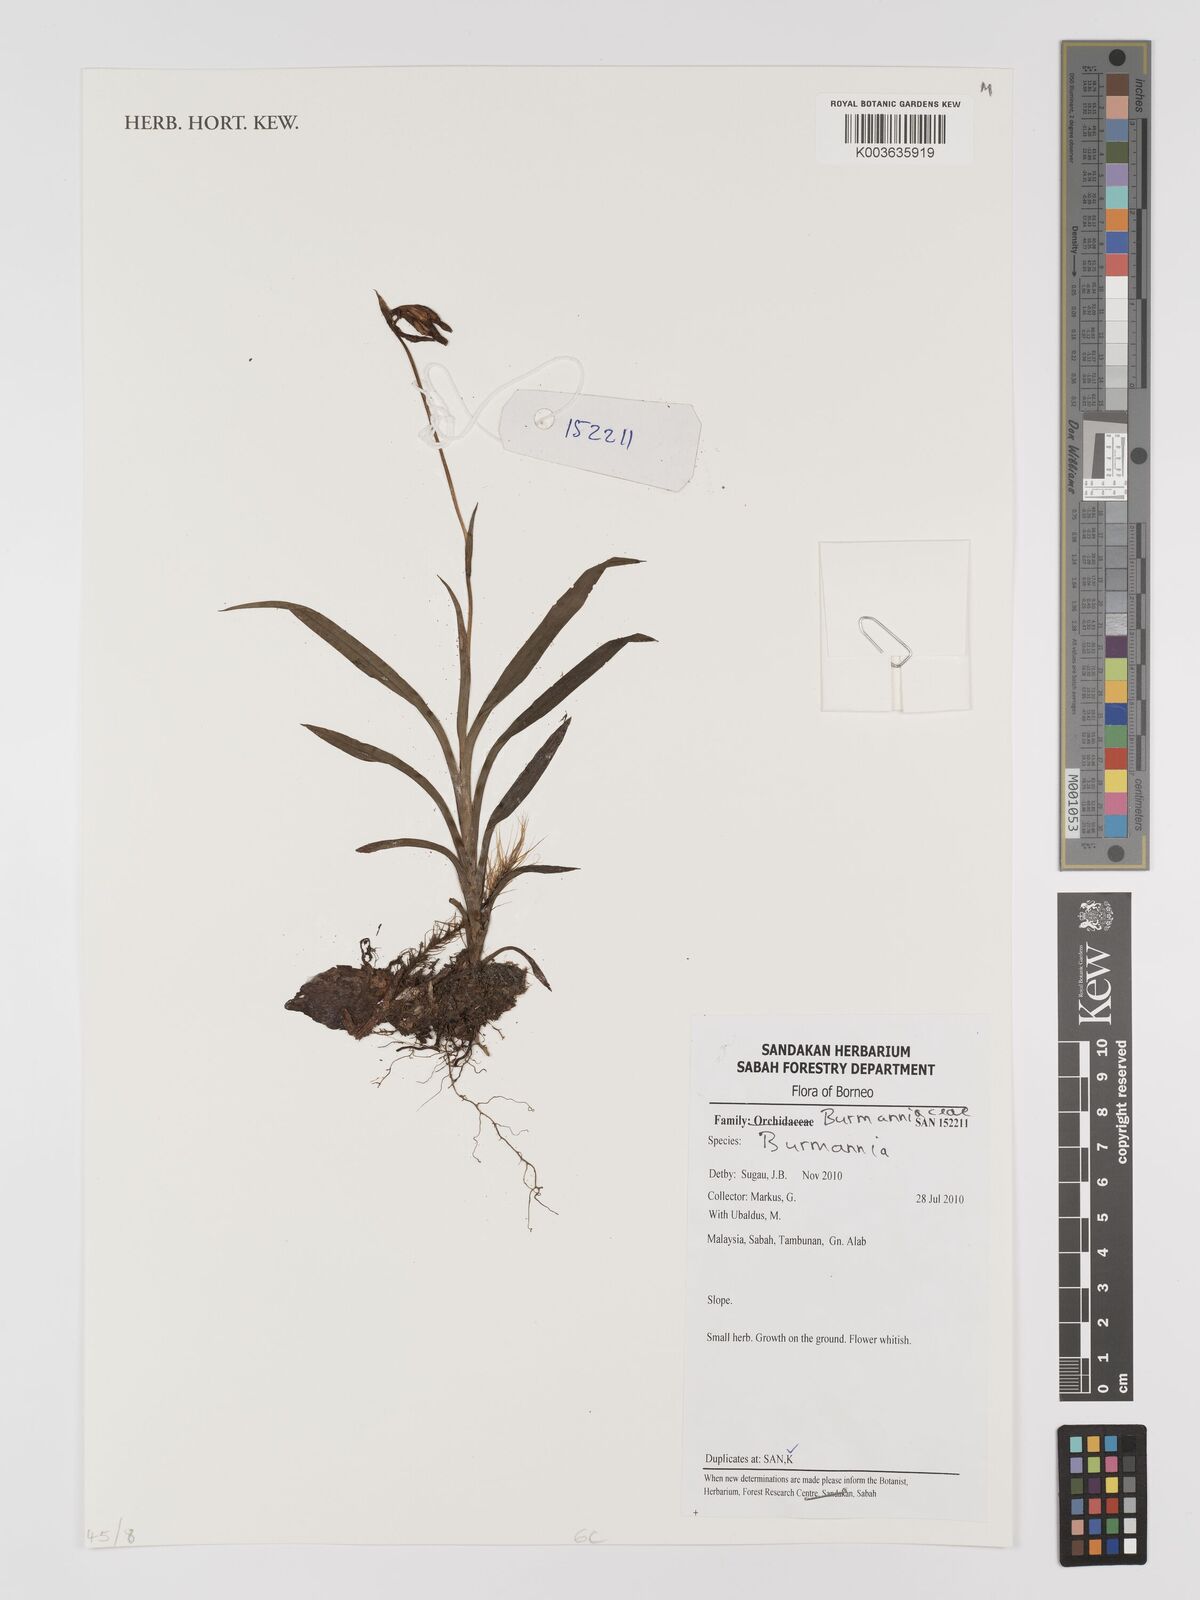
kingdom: Plantae
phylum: Tracheophyta
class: Liliopsida
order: Dioscoreales
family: Burmanniaceae
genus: Burmannia
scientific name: Burmannia
